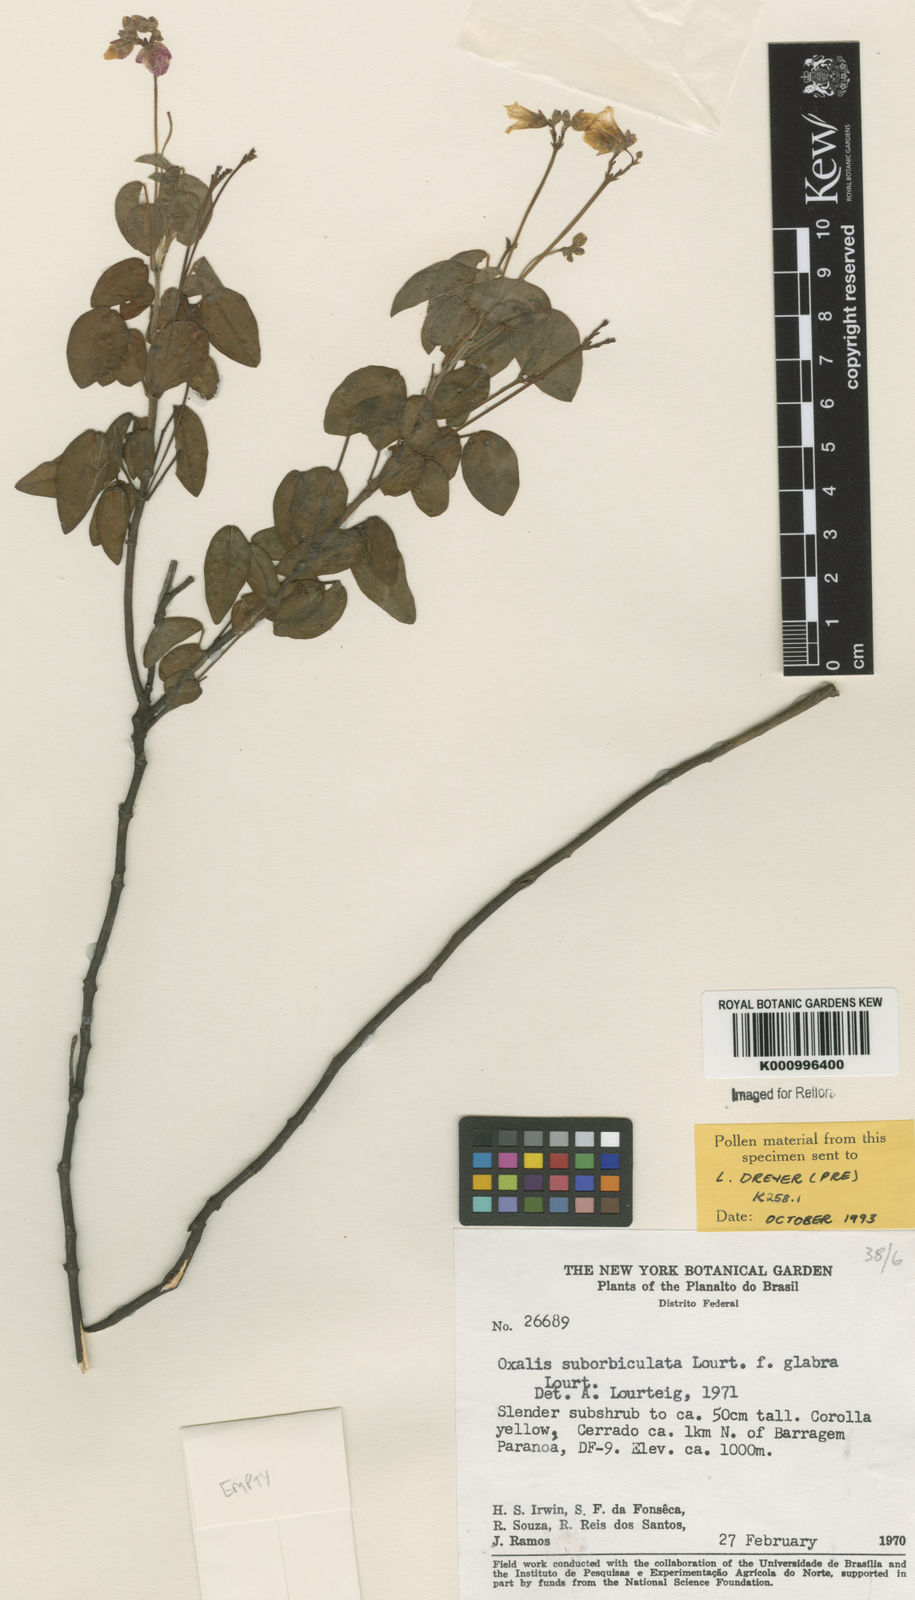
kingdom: Plantae
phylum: Tracheophyta
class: Magnoliopsida
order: Oxalidales
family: Oxalidaceae
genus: Oxalis
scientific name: Oxalis suborbiculata
